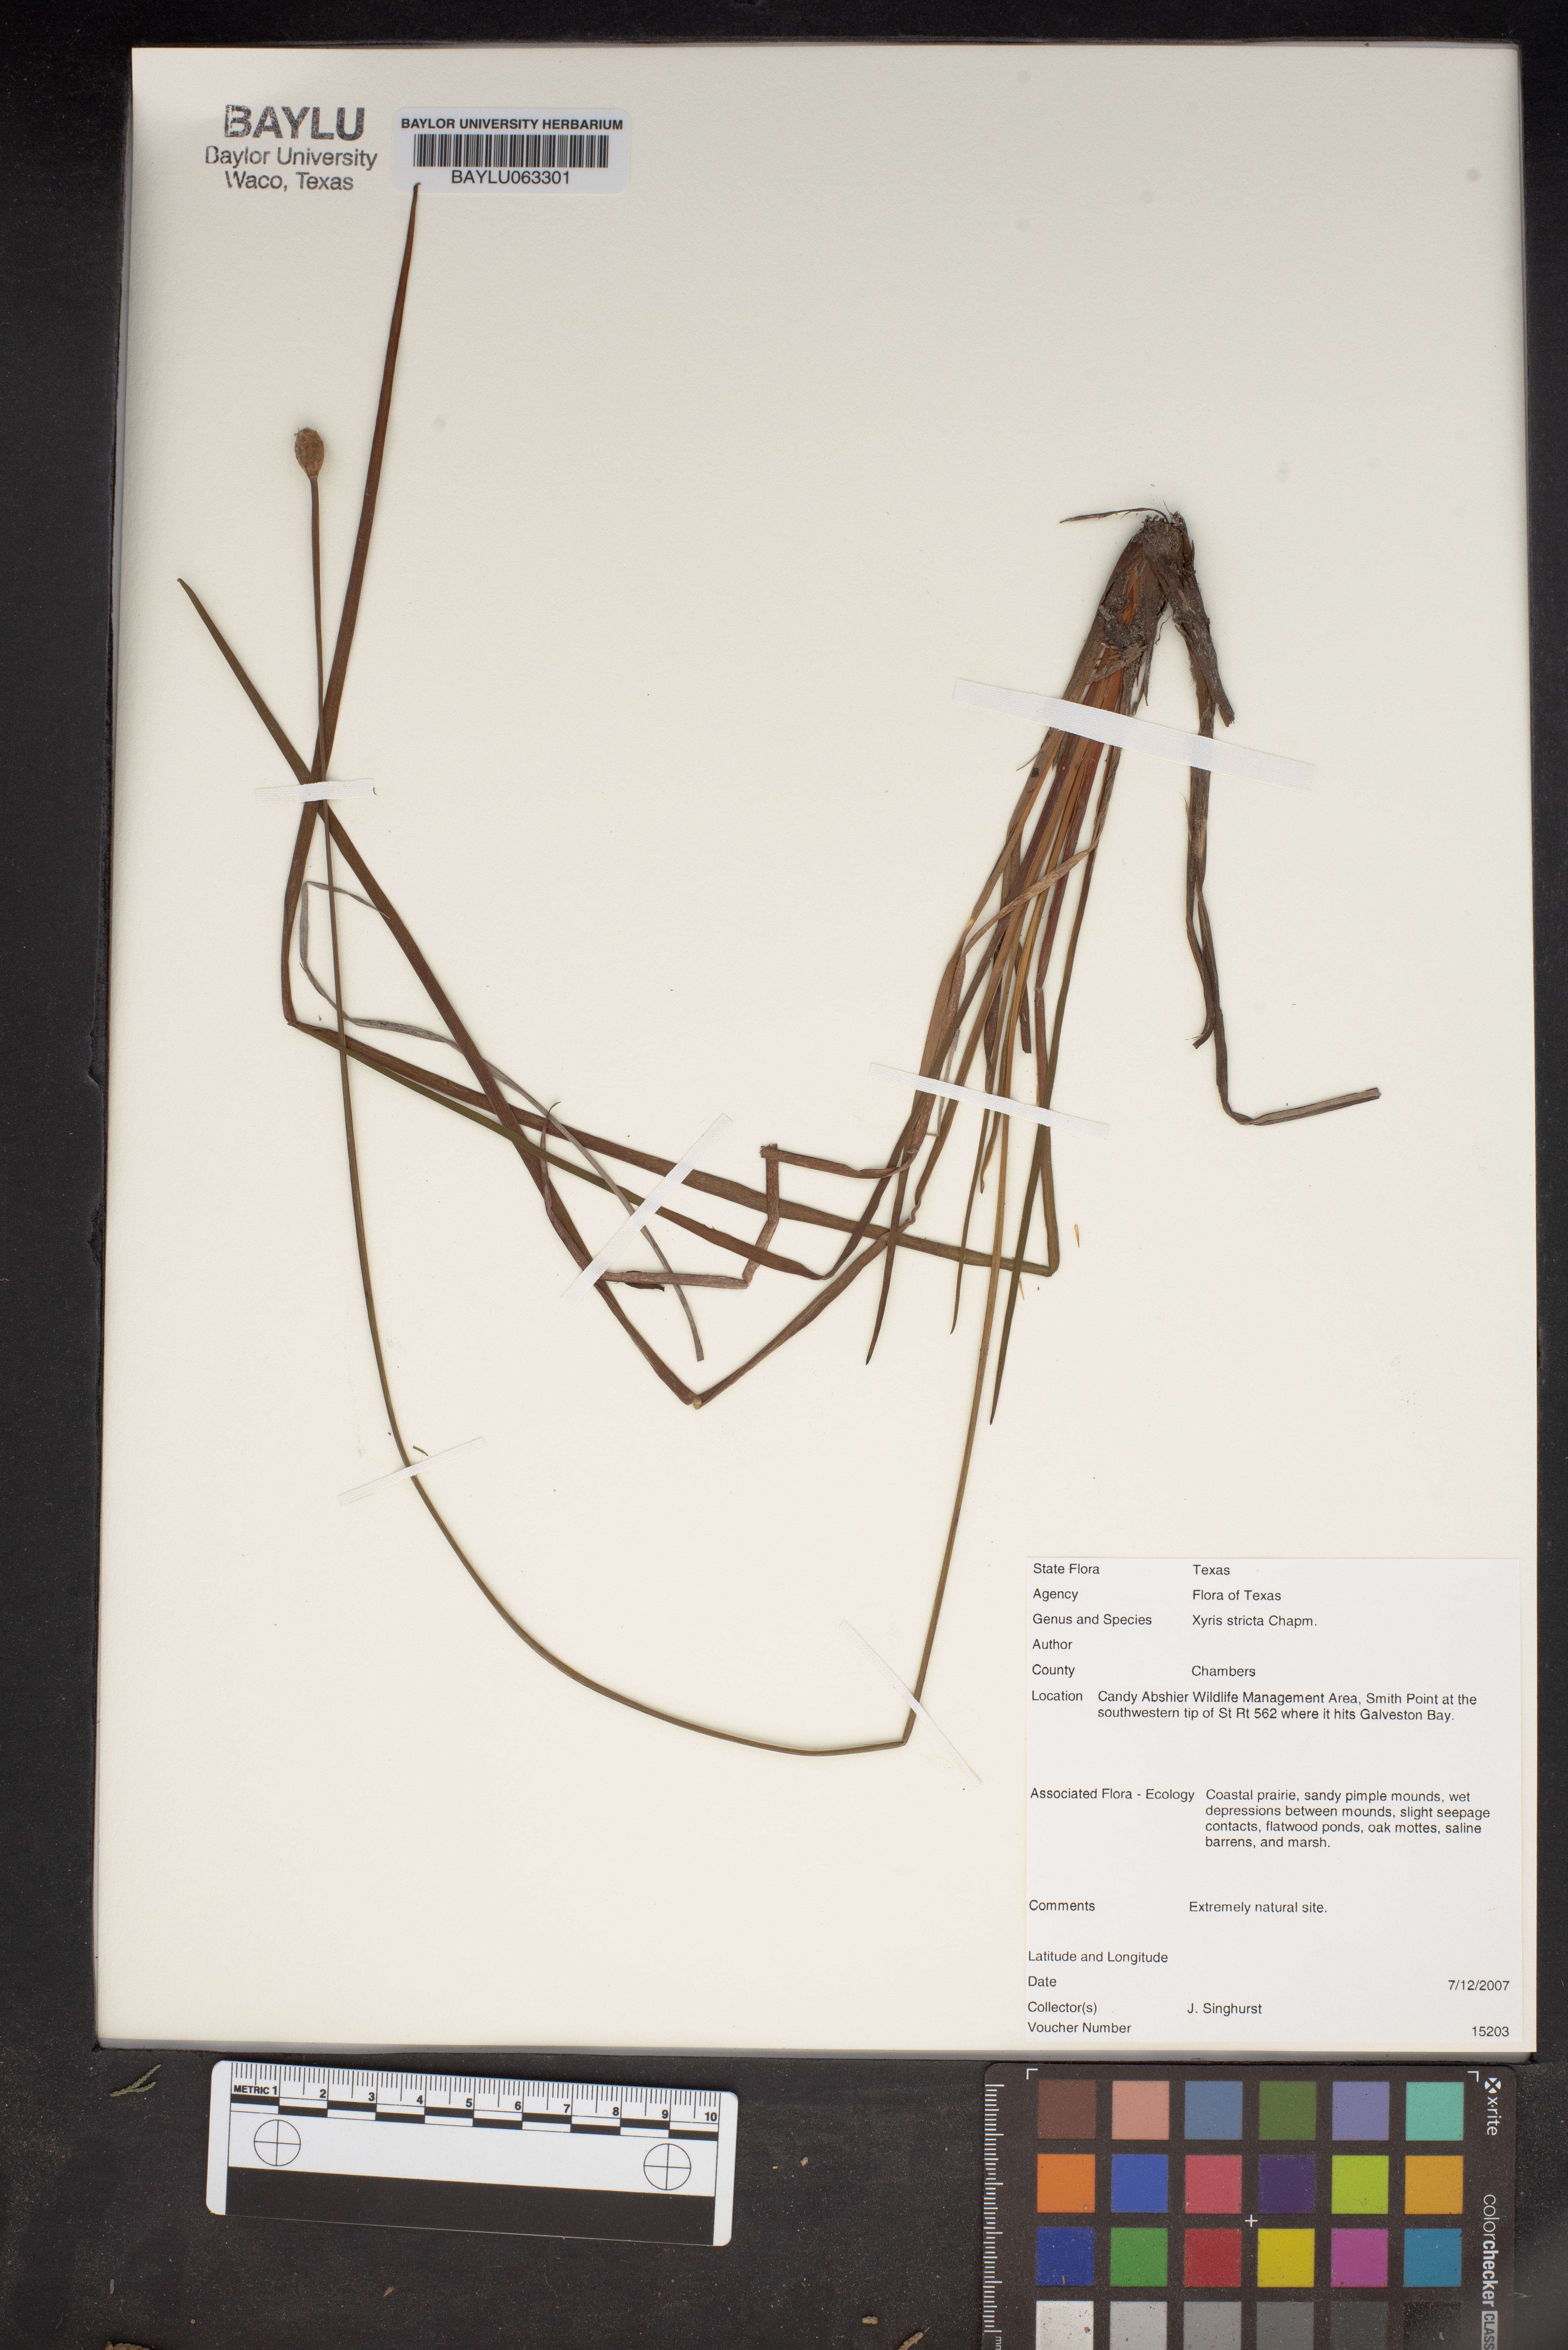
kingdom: Plantae
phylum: Tracheophyta
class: Liliopsida
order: Poales
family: Xyridaceae
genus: Xyris
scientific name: Xyris stricta
